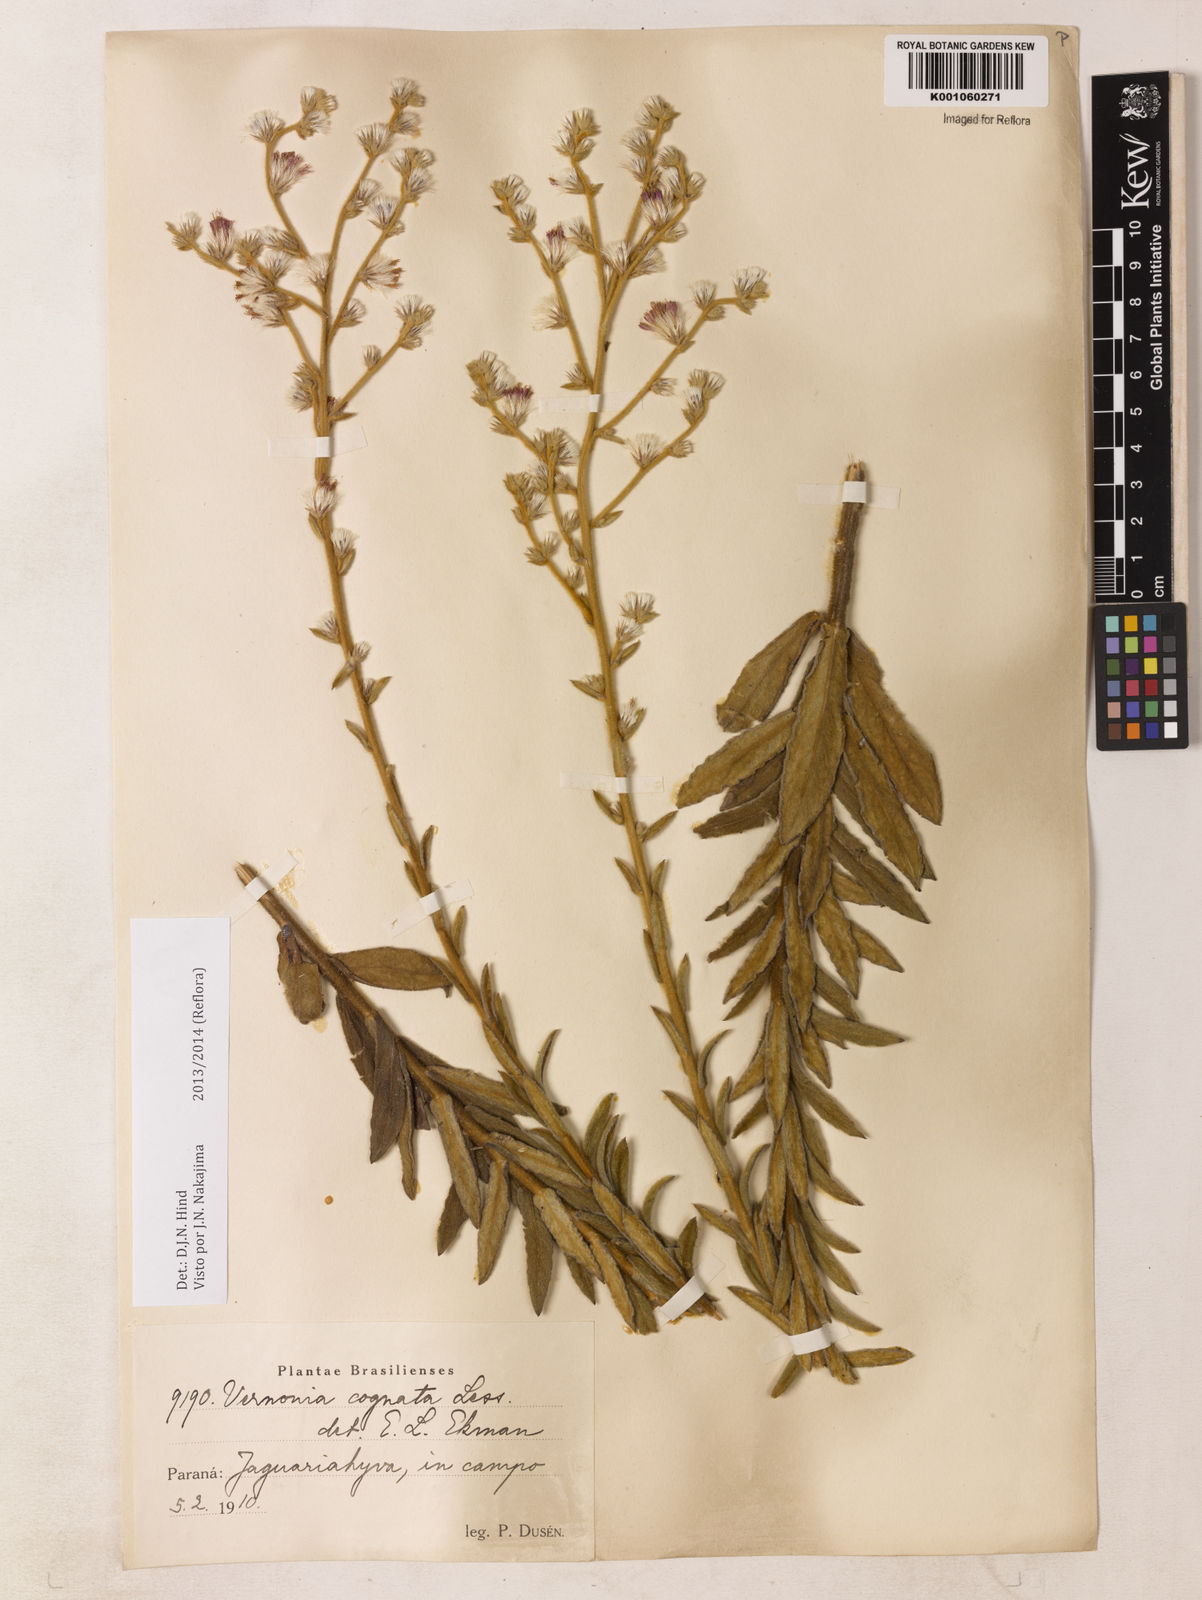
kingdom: Plantae
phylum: Tracheophyta
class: Magnoliopsida
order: Asterales
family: Asteraceae
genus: Chrysolaena
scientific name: Chrysolaena cognata
